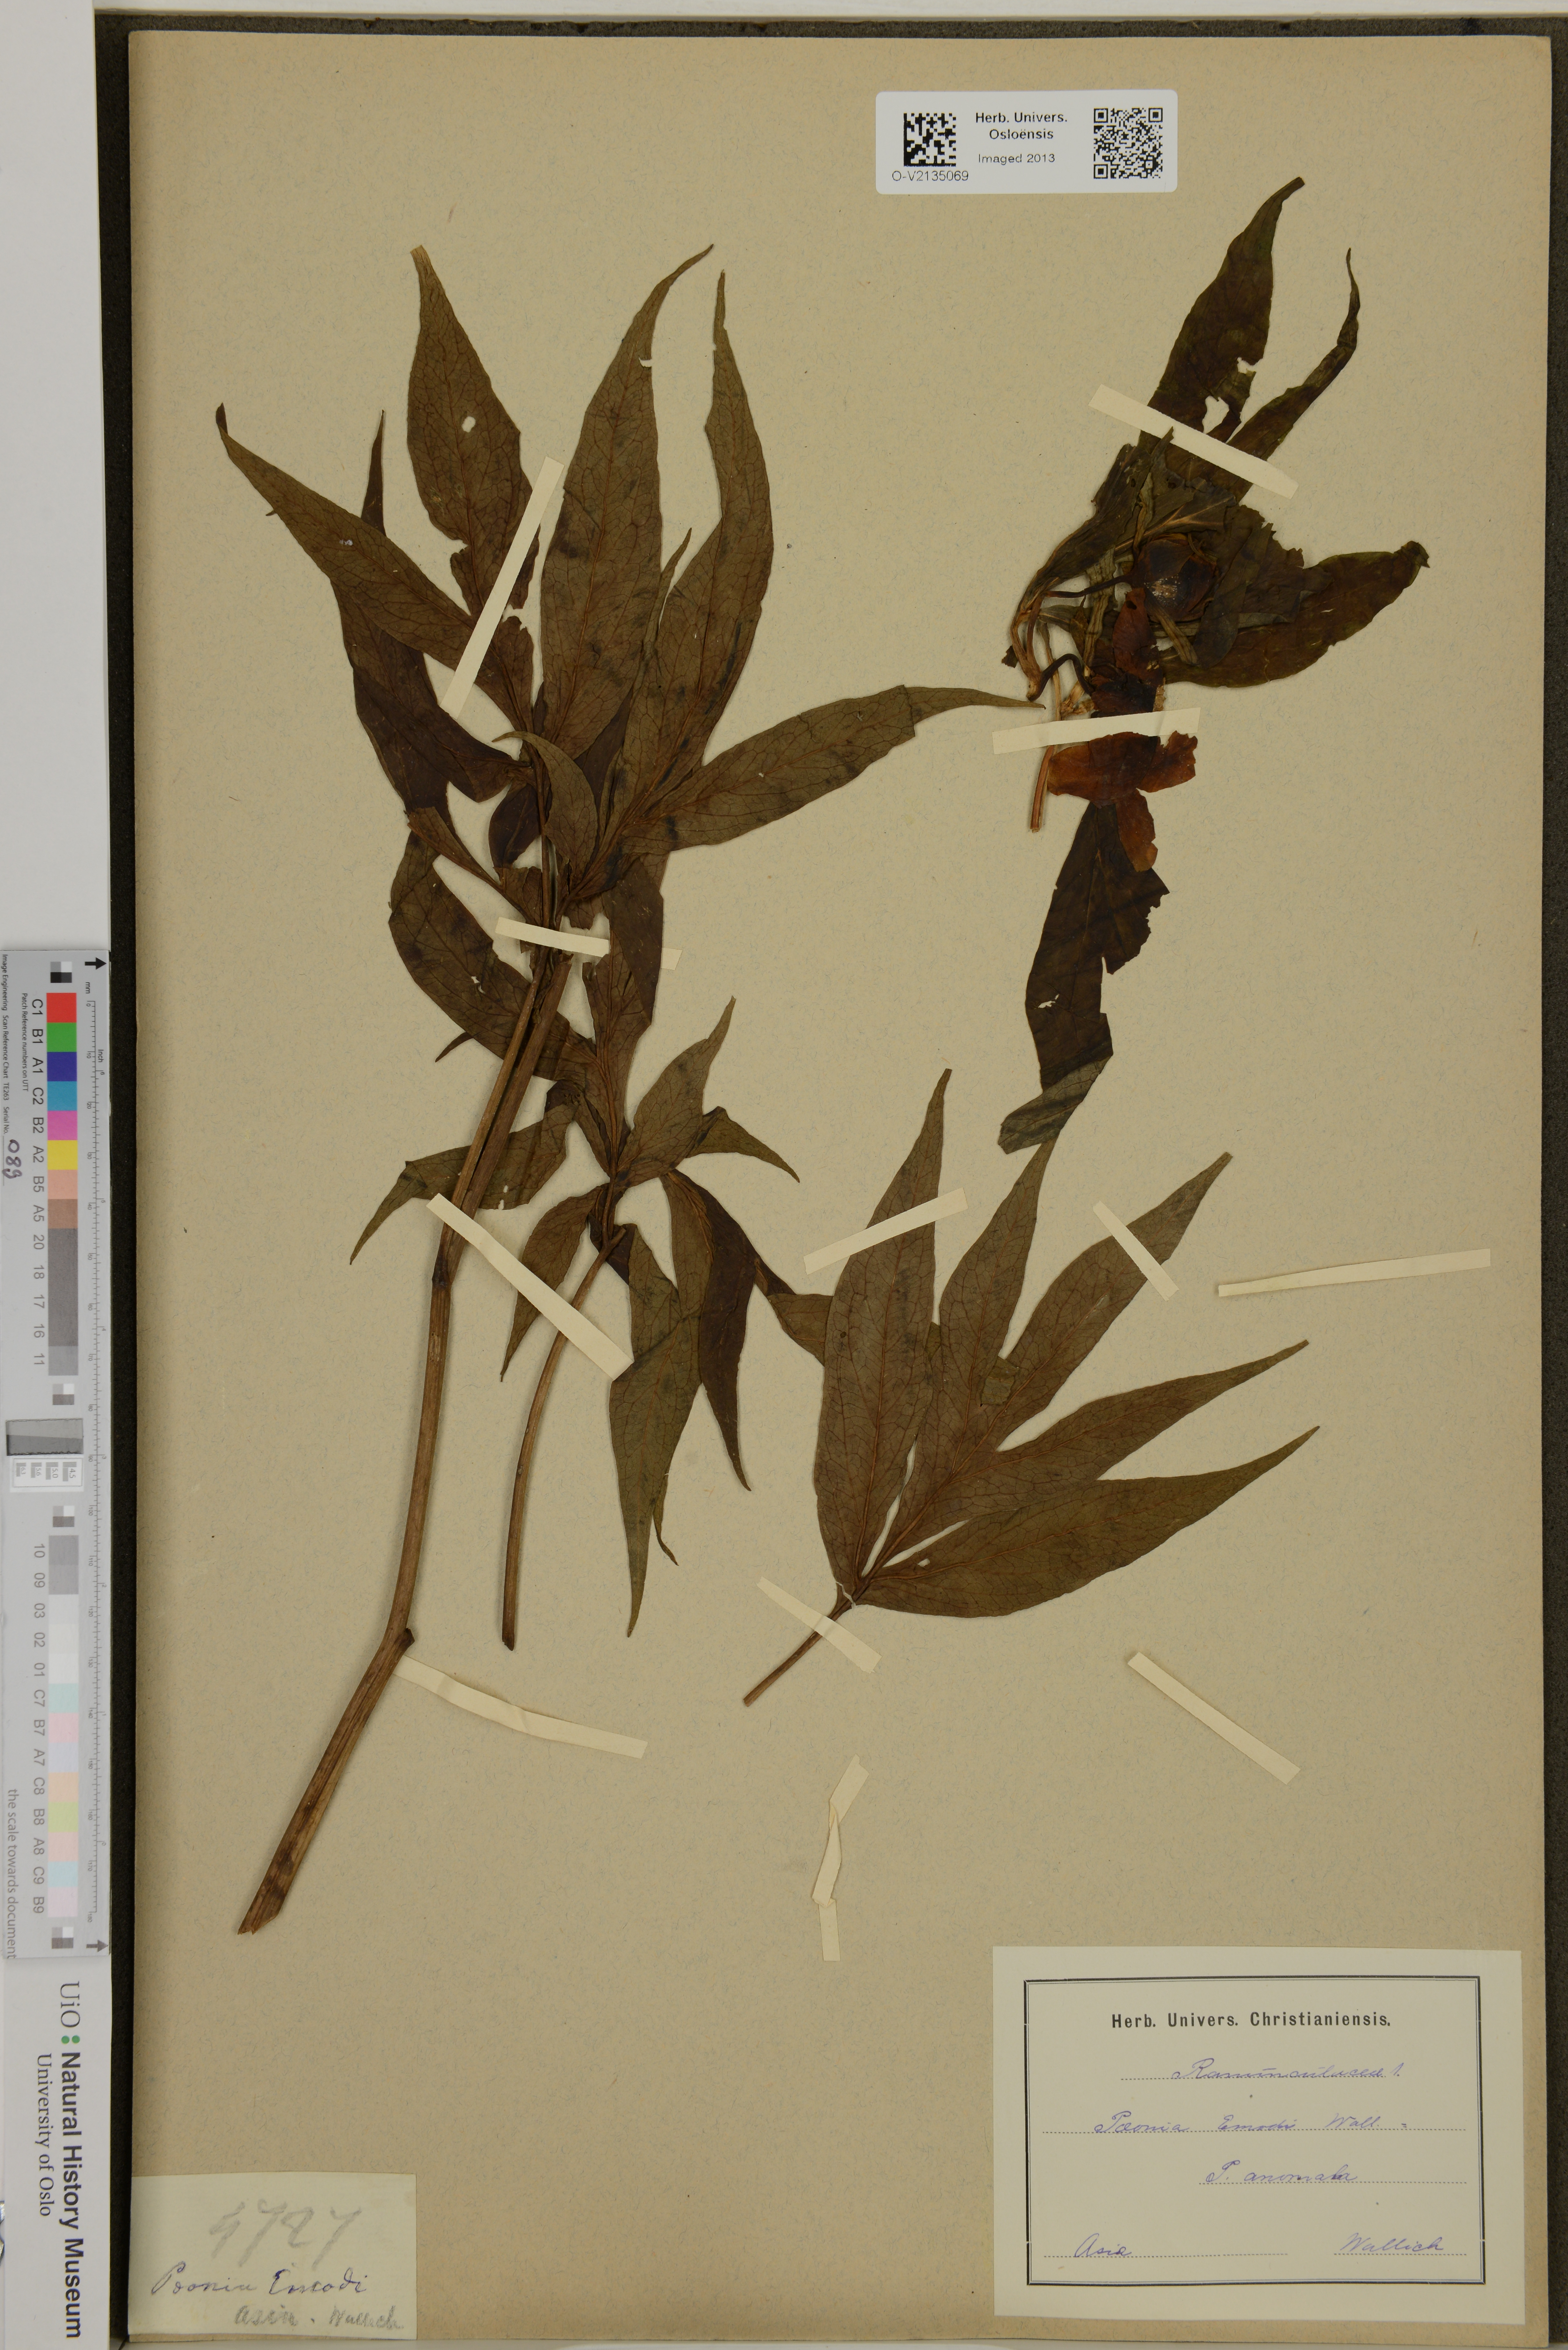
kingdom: Plantae
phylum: Tracheophyta
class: Magnoliopsida
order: Saxifragales
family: Paeoniaceae
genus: Paeonia
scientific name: Paeonia emodi
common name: Himalayan peony
